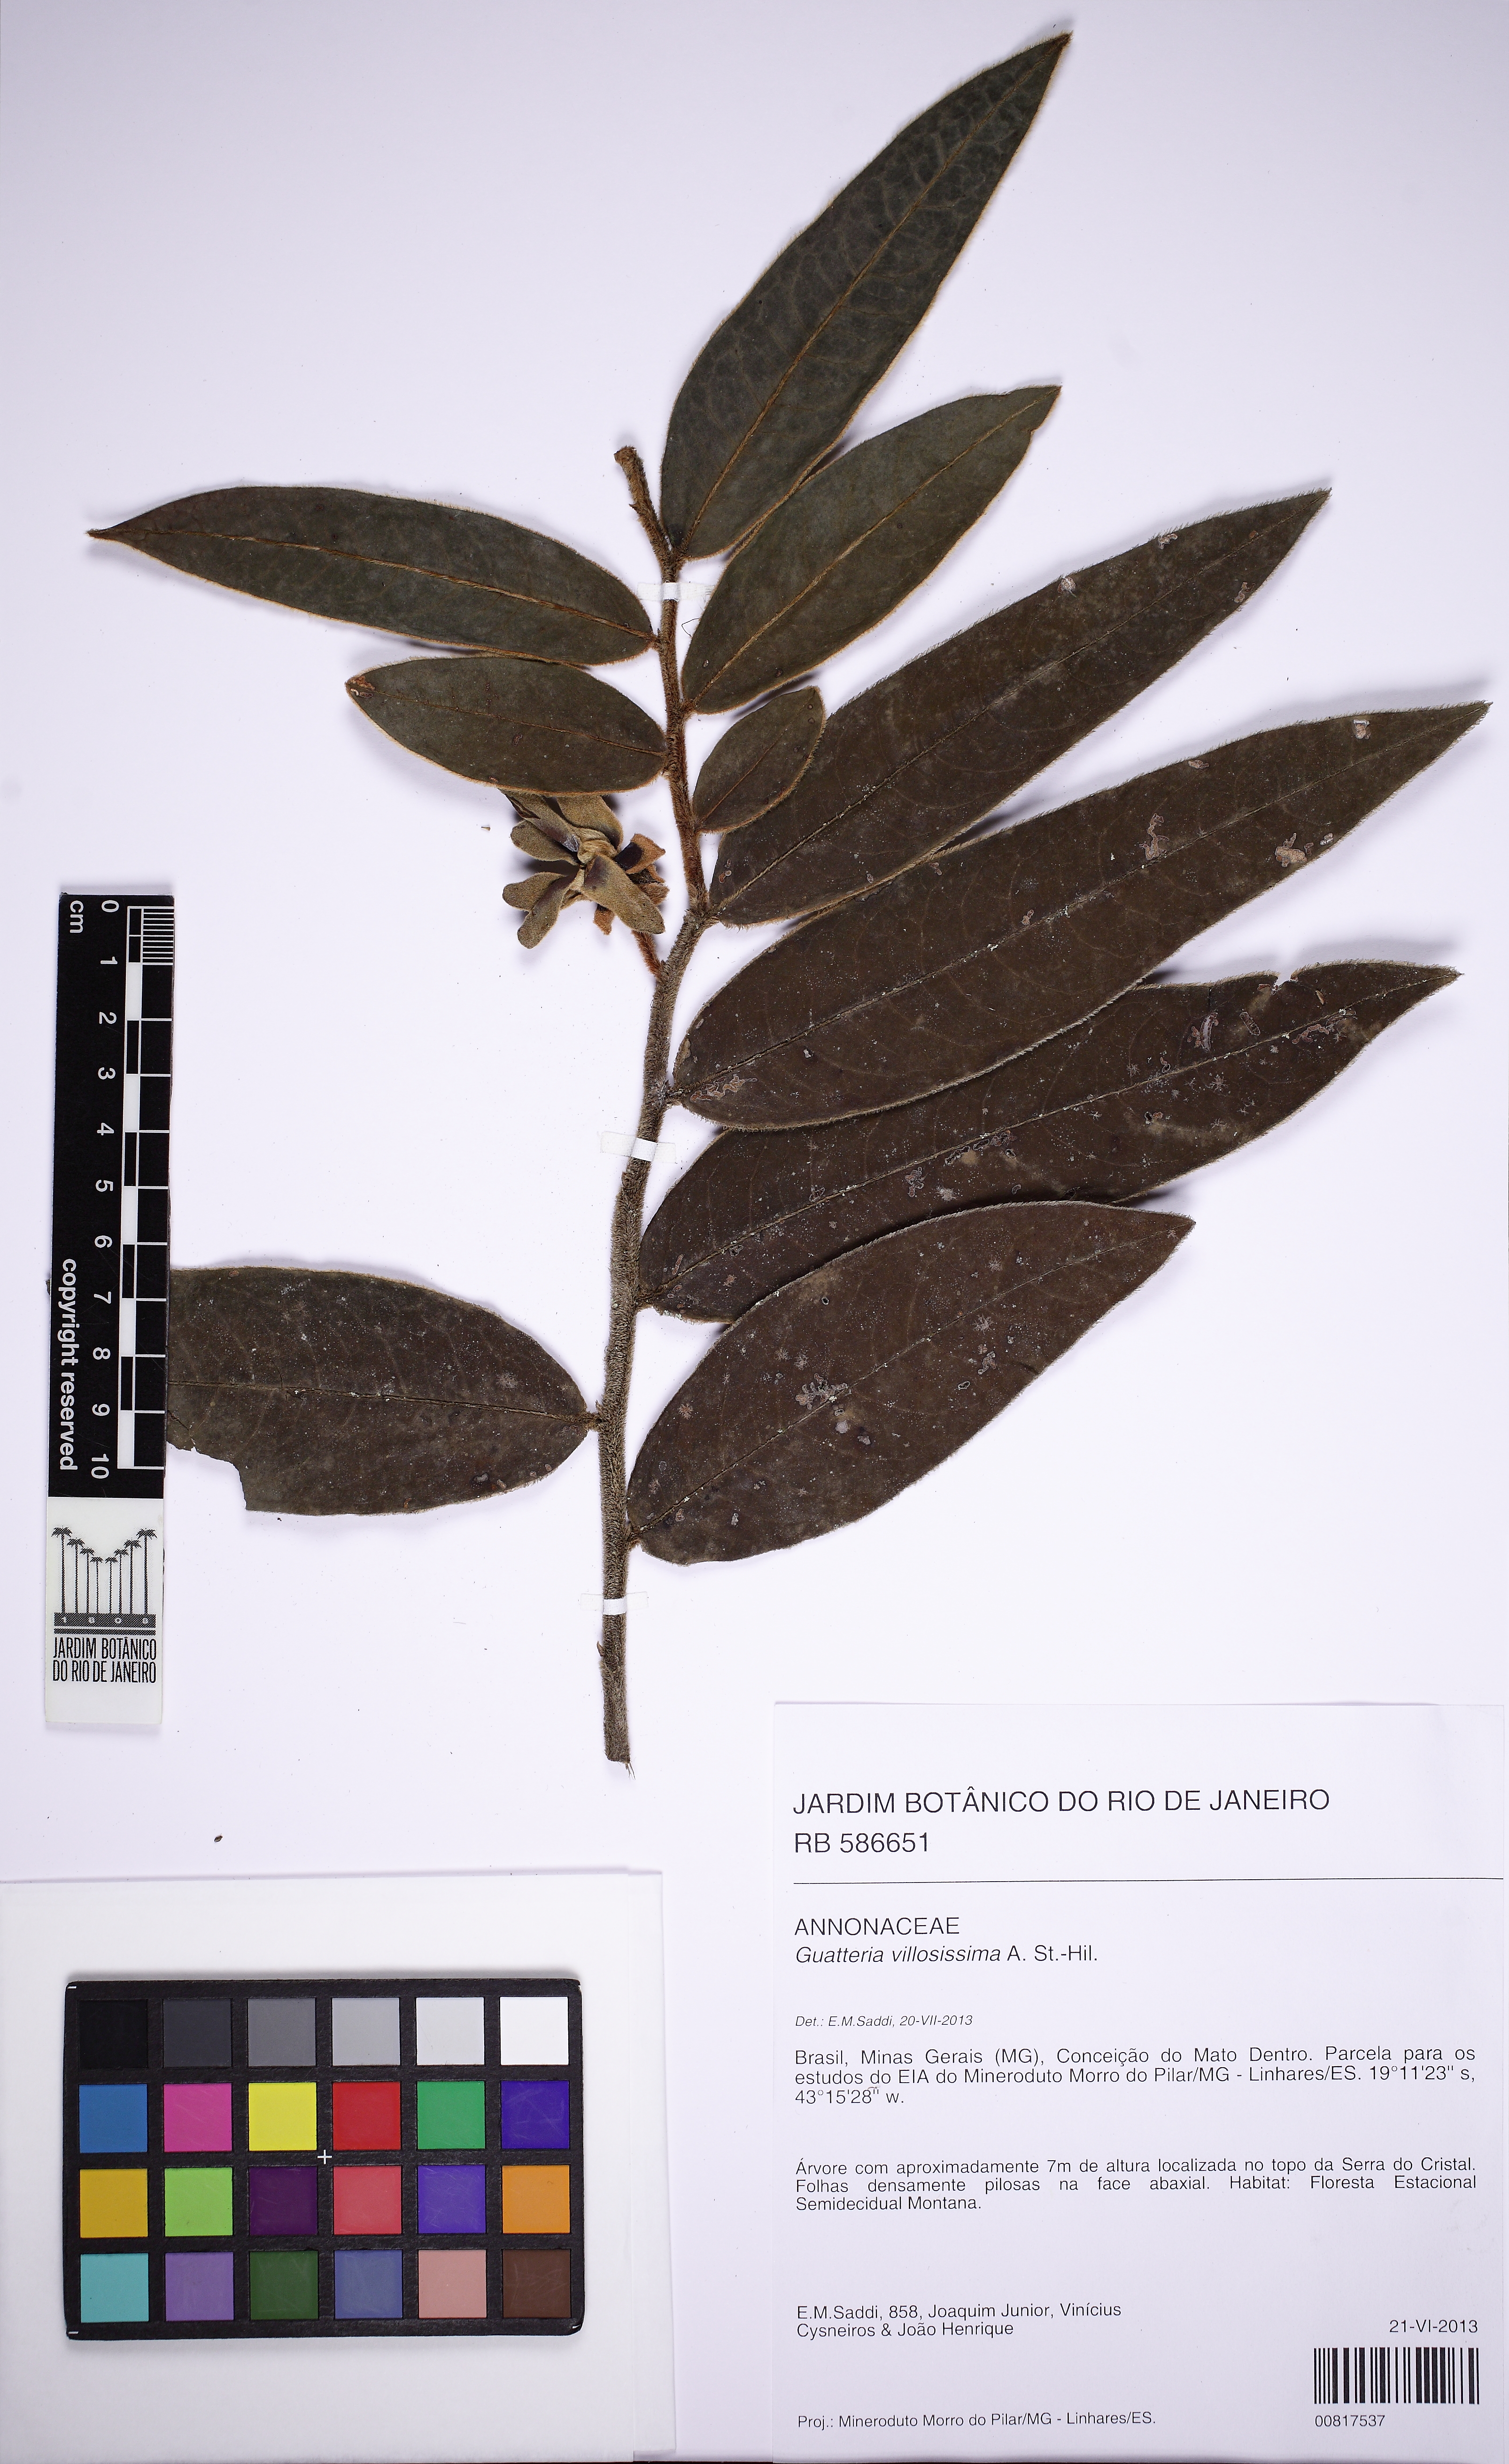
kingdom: Plantae
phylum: Tracheophyta
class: Magnoliopsida
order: Magnoliales
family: Annonaceae
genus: Guatteria
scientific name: Guatteria villosissima
